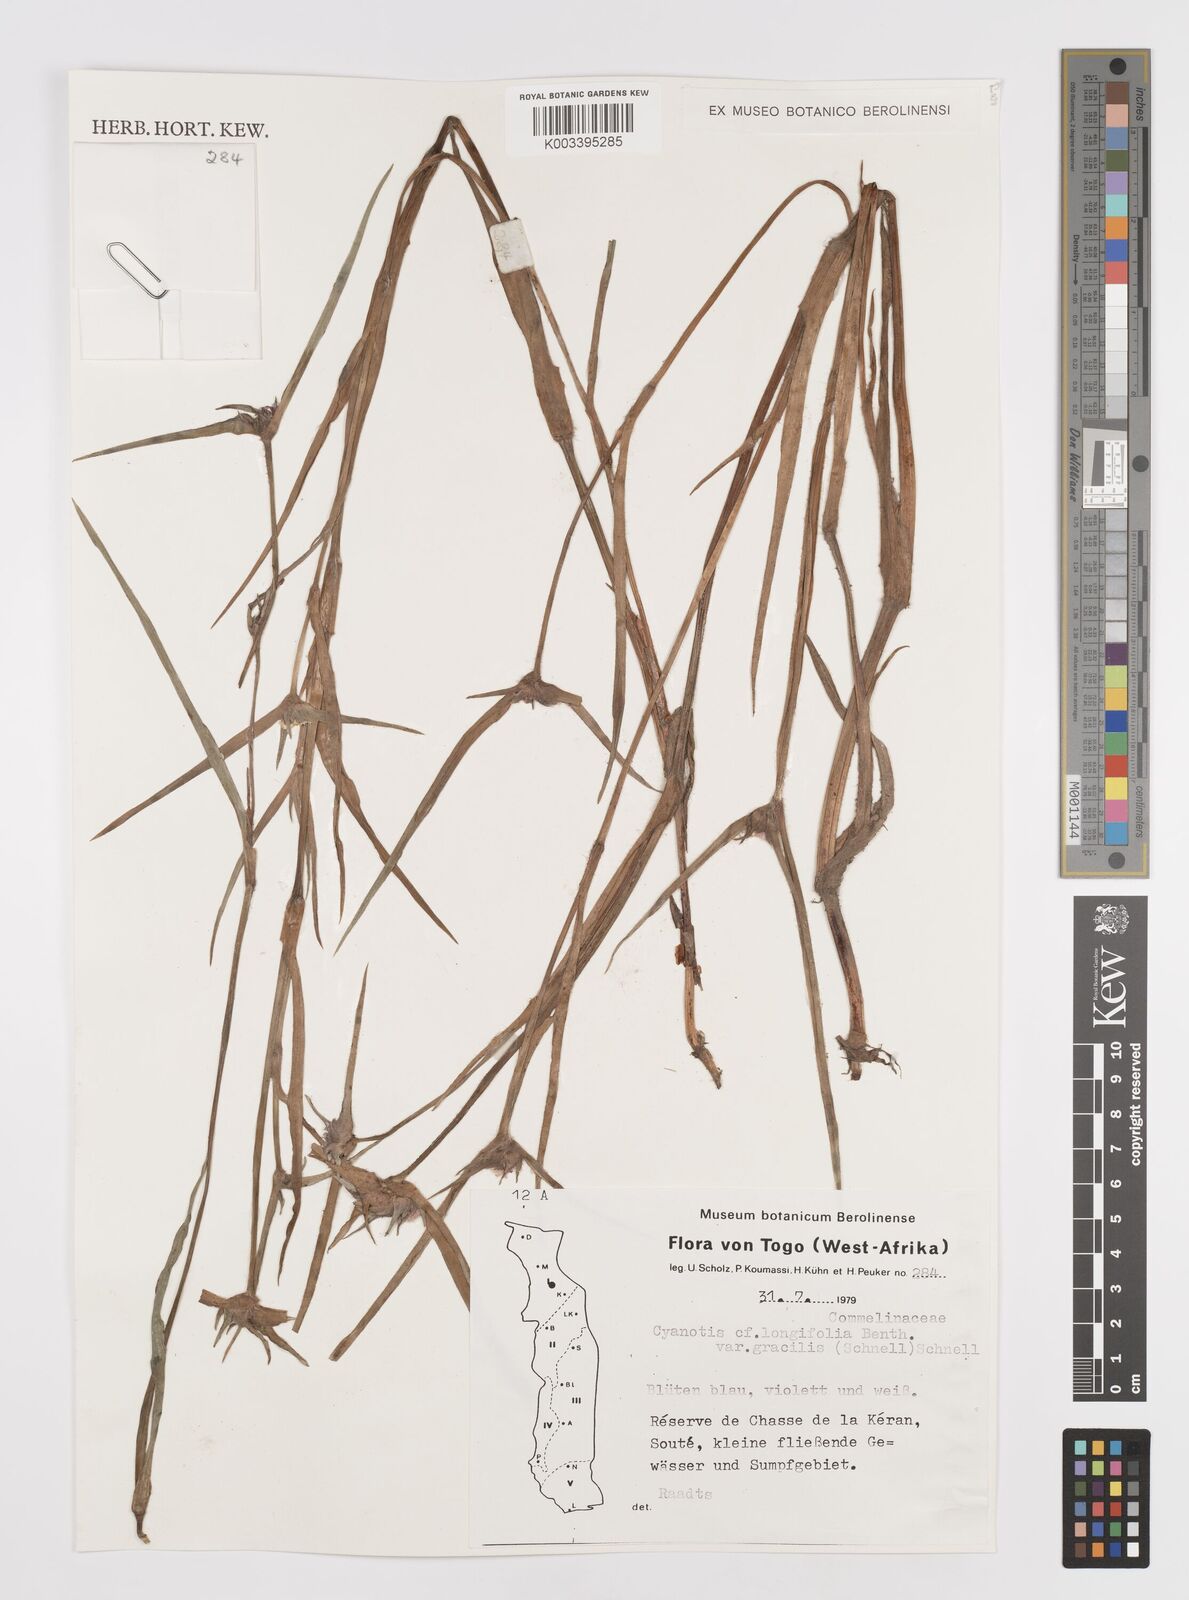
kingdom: Plantae
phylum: Tracheophyta
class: Liliopsida
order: Commelinales
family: Commelinaceae
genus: Cyanotis
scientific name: Cyanotis longifolia
